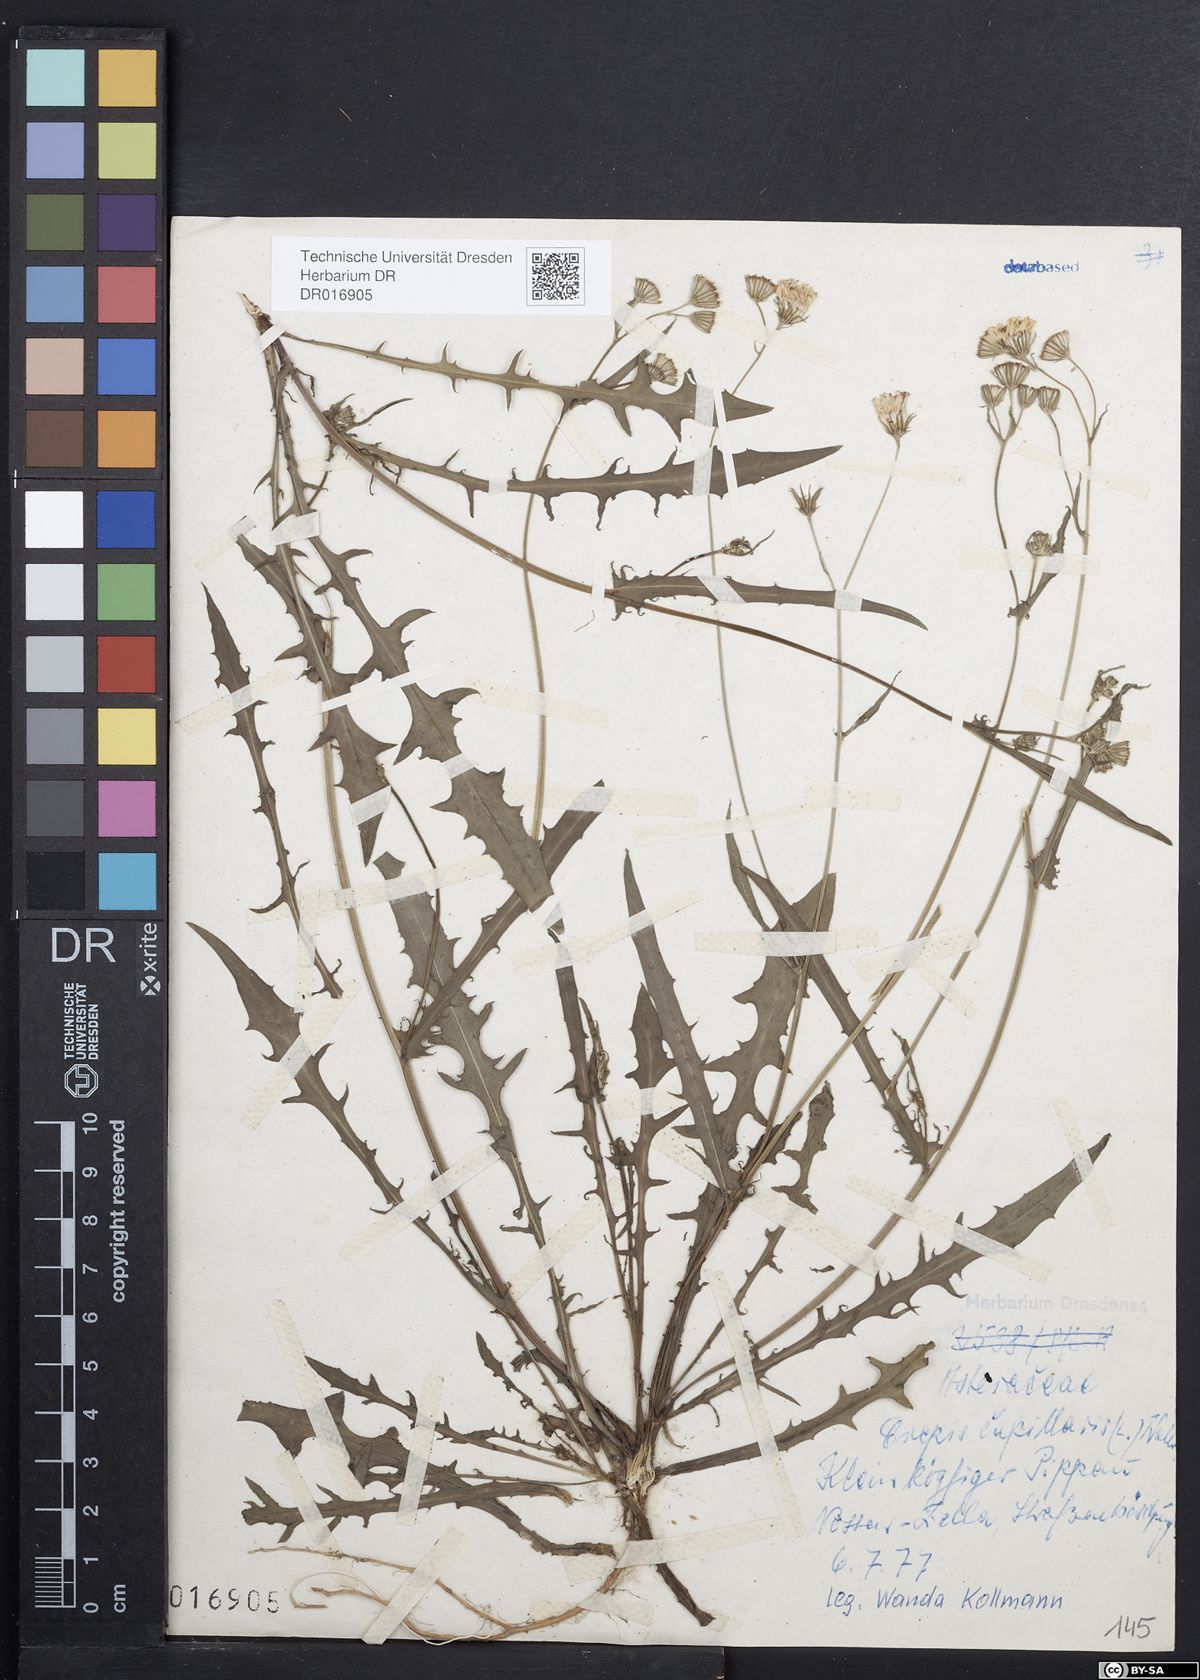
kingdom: Plantae
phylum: Tracheophyta
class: Magnoliopsida
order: Asterales
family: Asteraceae
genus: Crepis
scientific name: Crepis capillaris
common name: Smooth hawksbeard
